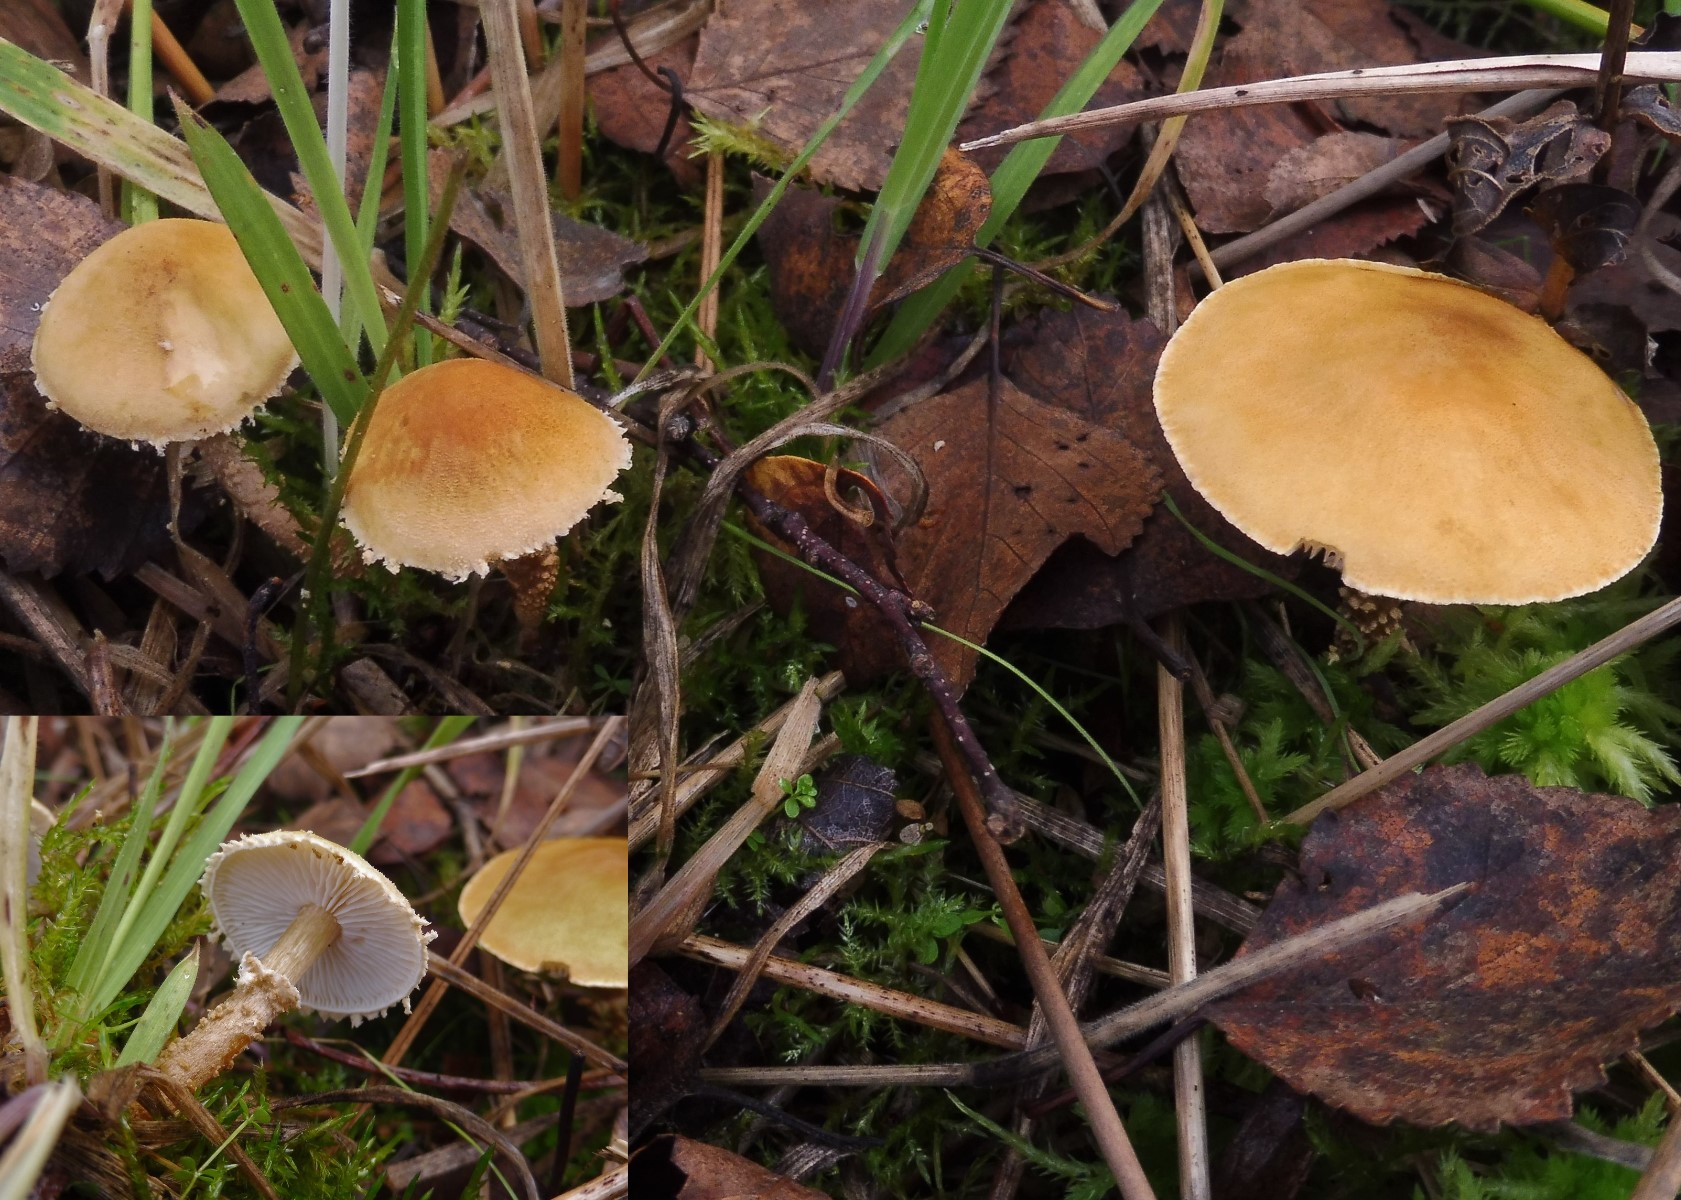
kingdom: Fungi
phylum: Basidiomycota
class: Agaricomycetes
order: Agaricales
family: Tricholomataceae
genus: Cystoderma
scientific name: Cystoderma amianthinum
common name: okkergul grynhat
